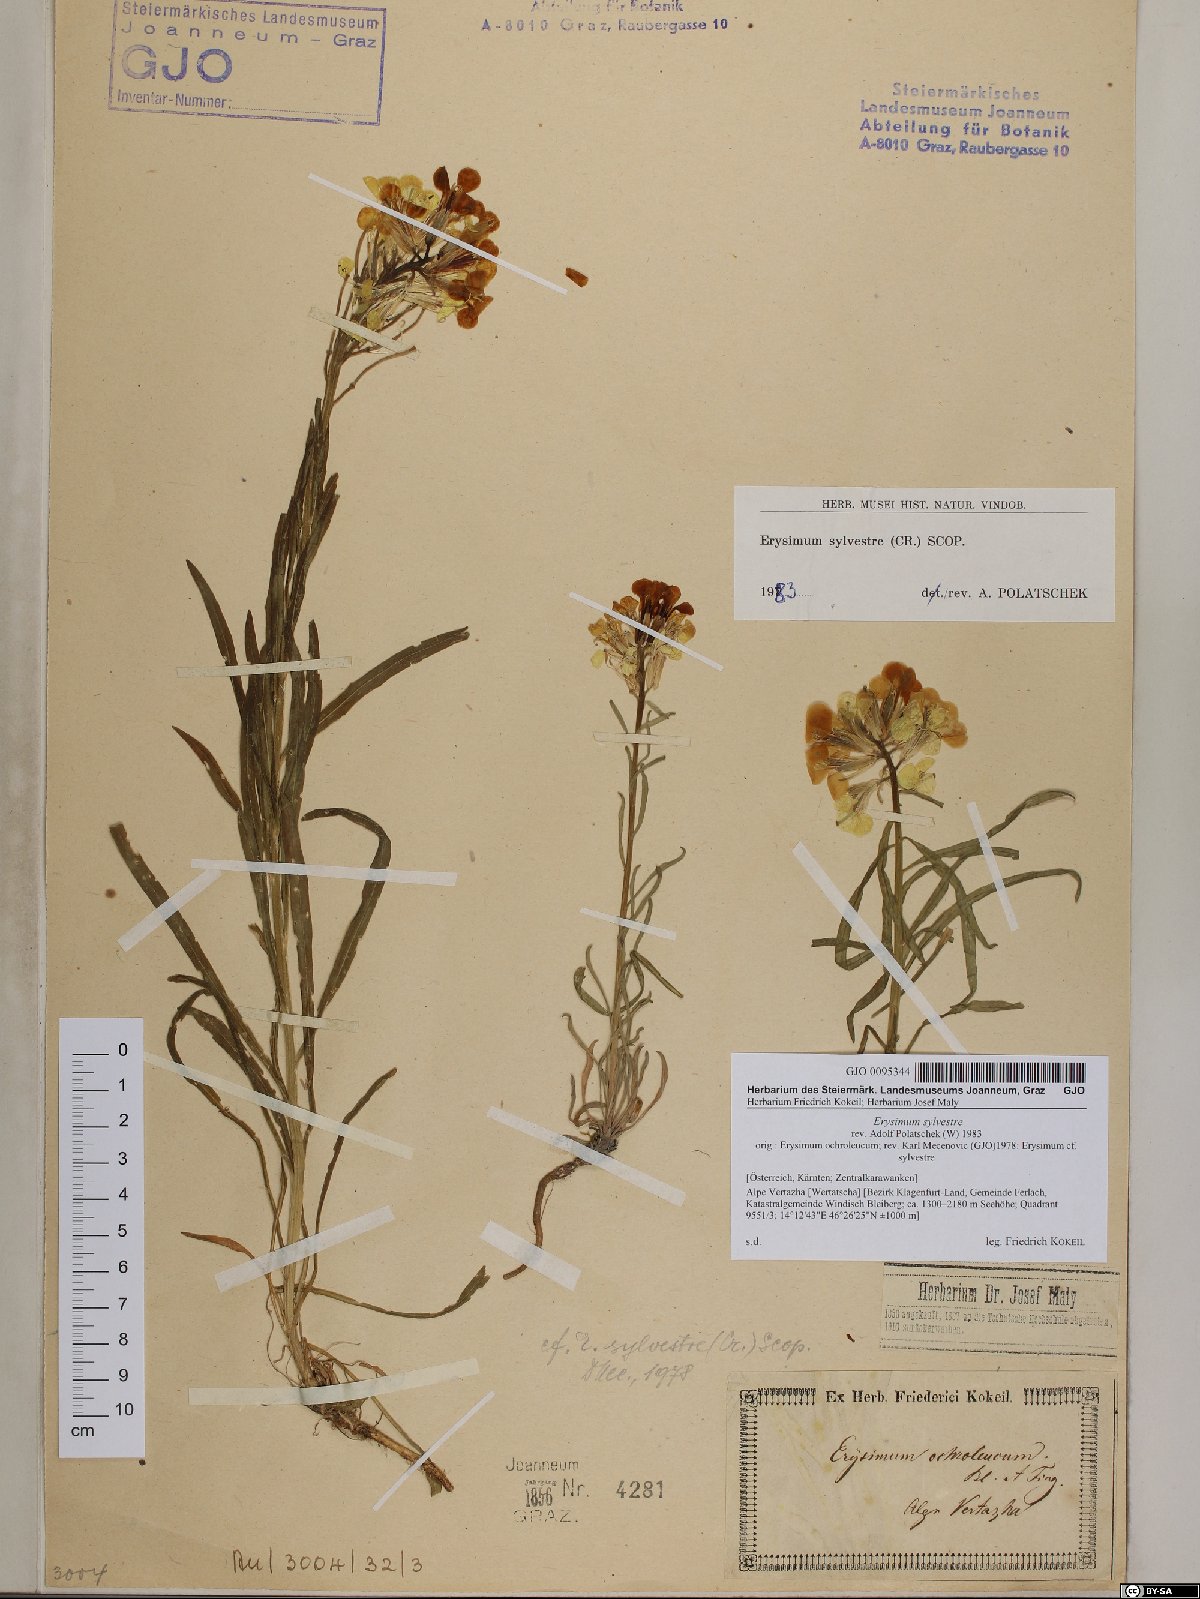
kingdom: Plantae
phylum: Tracheophyta
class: Magnoliopsida
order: Brassicales
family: Brassicaceae
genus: Erysimum
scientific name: Erysimum sylvestre
